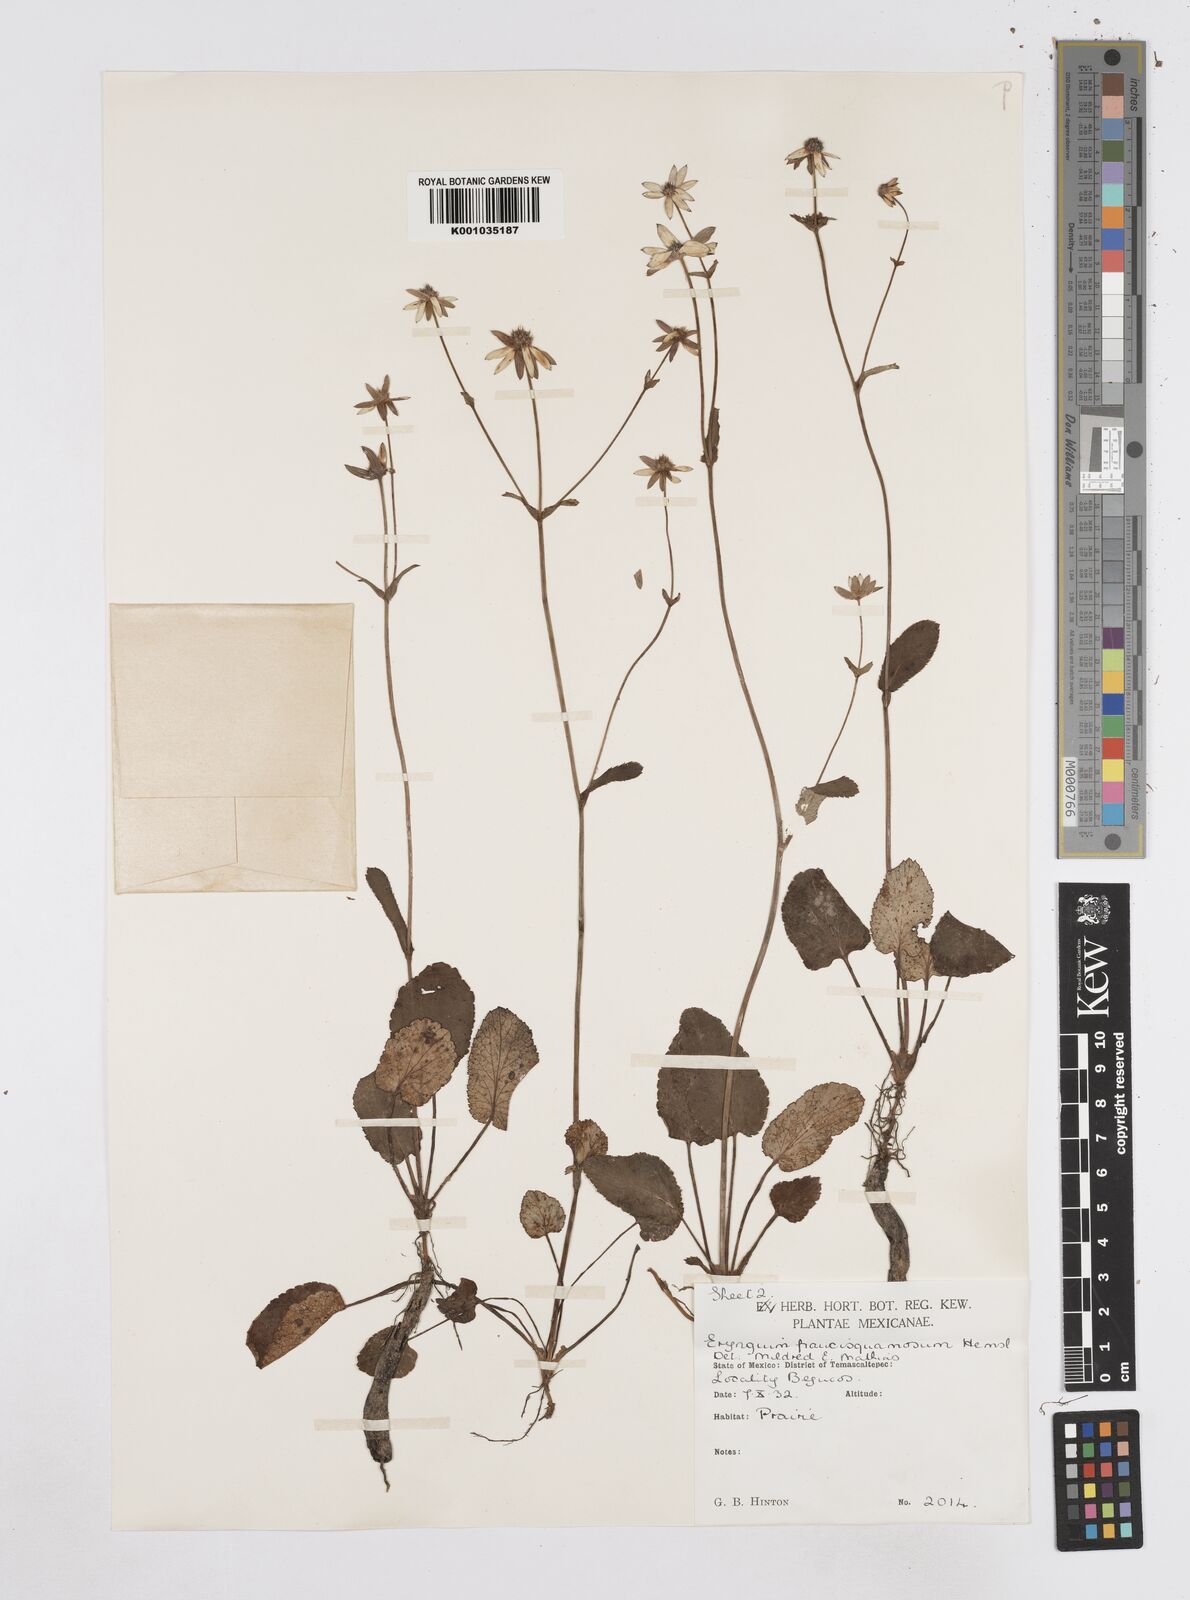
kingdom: Plantae
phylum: Tracheophyta
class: Magnoliopsida
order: Apiales
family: Apiaceae
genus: Eryngium
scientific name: Eryngium gracile
